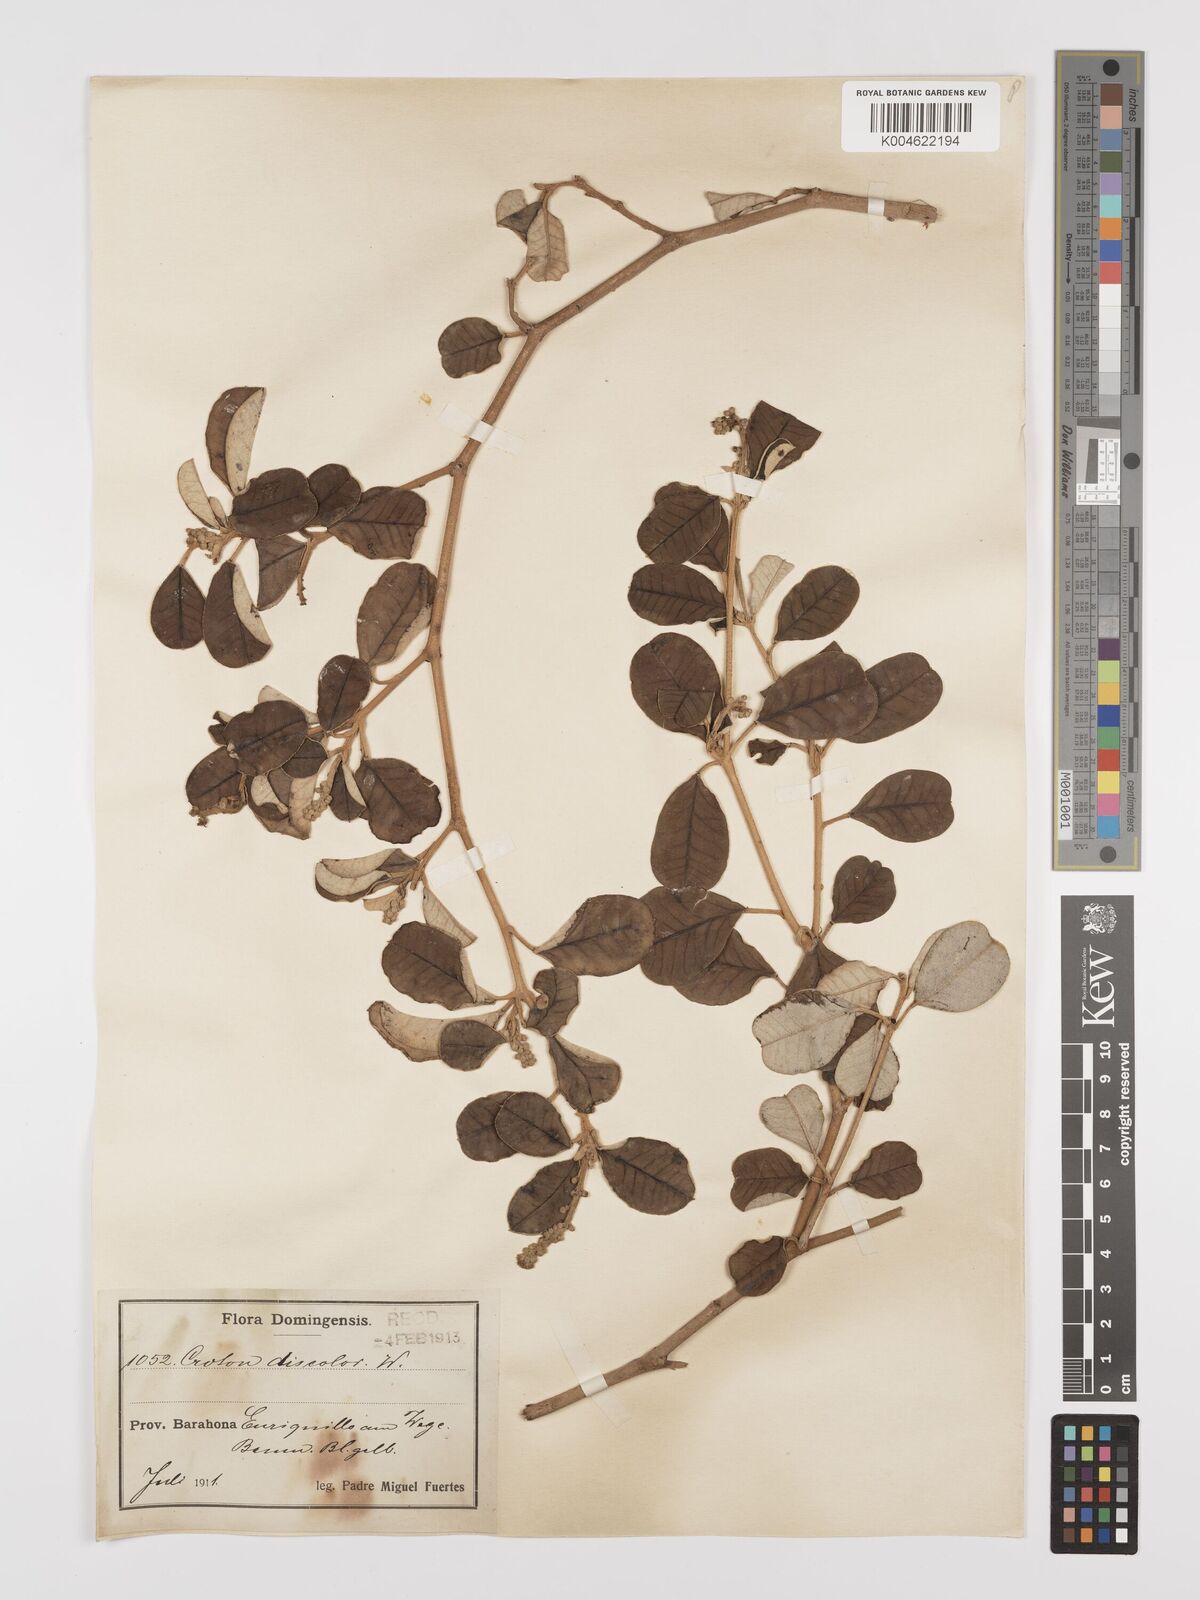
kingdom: Plantae
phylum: Tracheophyta
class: Magnoliopsida
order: Malpighiales
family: Euphorbiaceae
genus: Croton
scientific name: Croton
